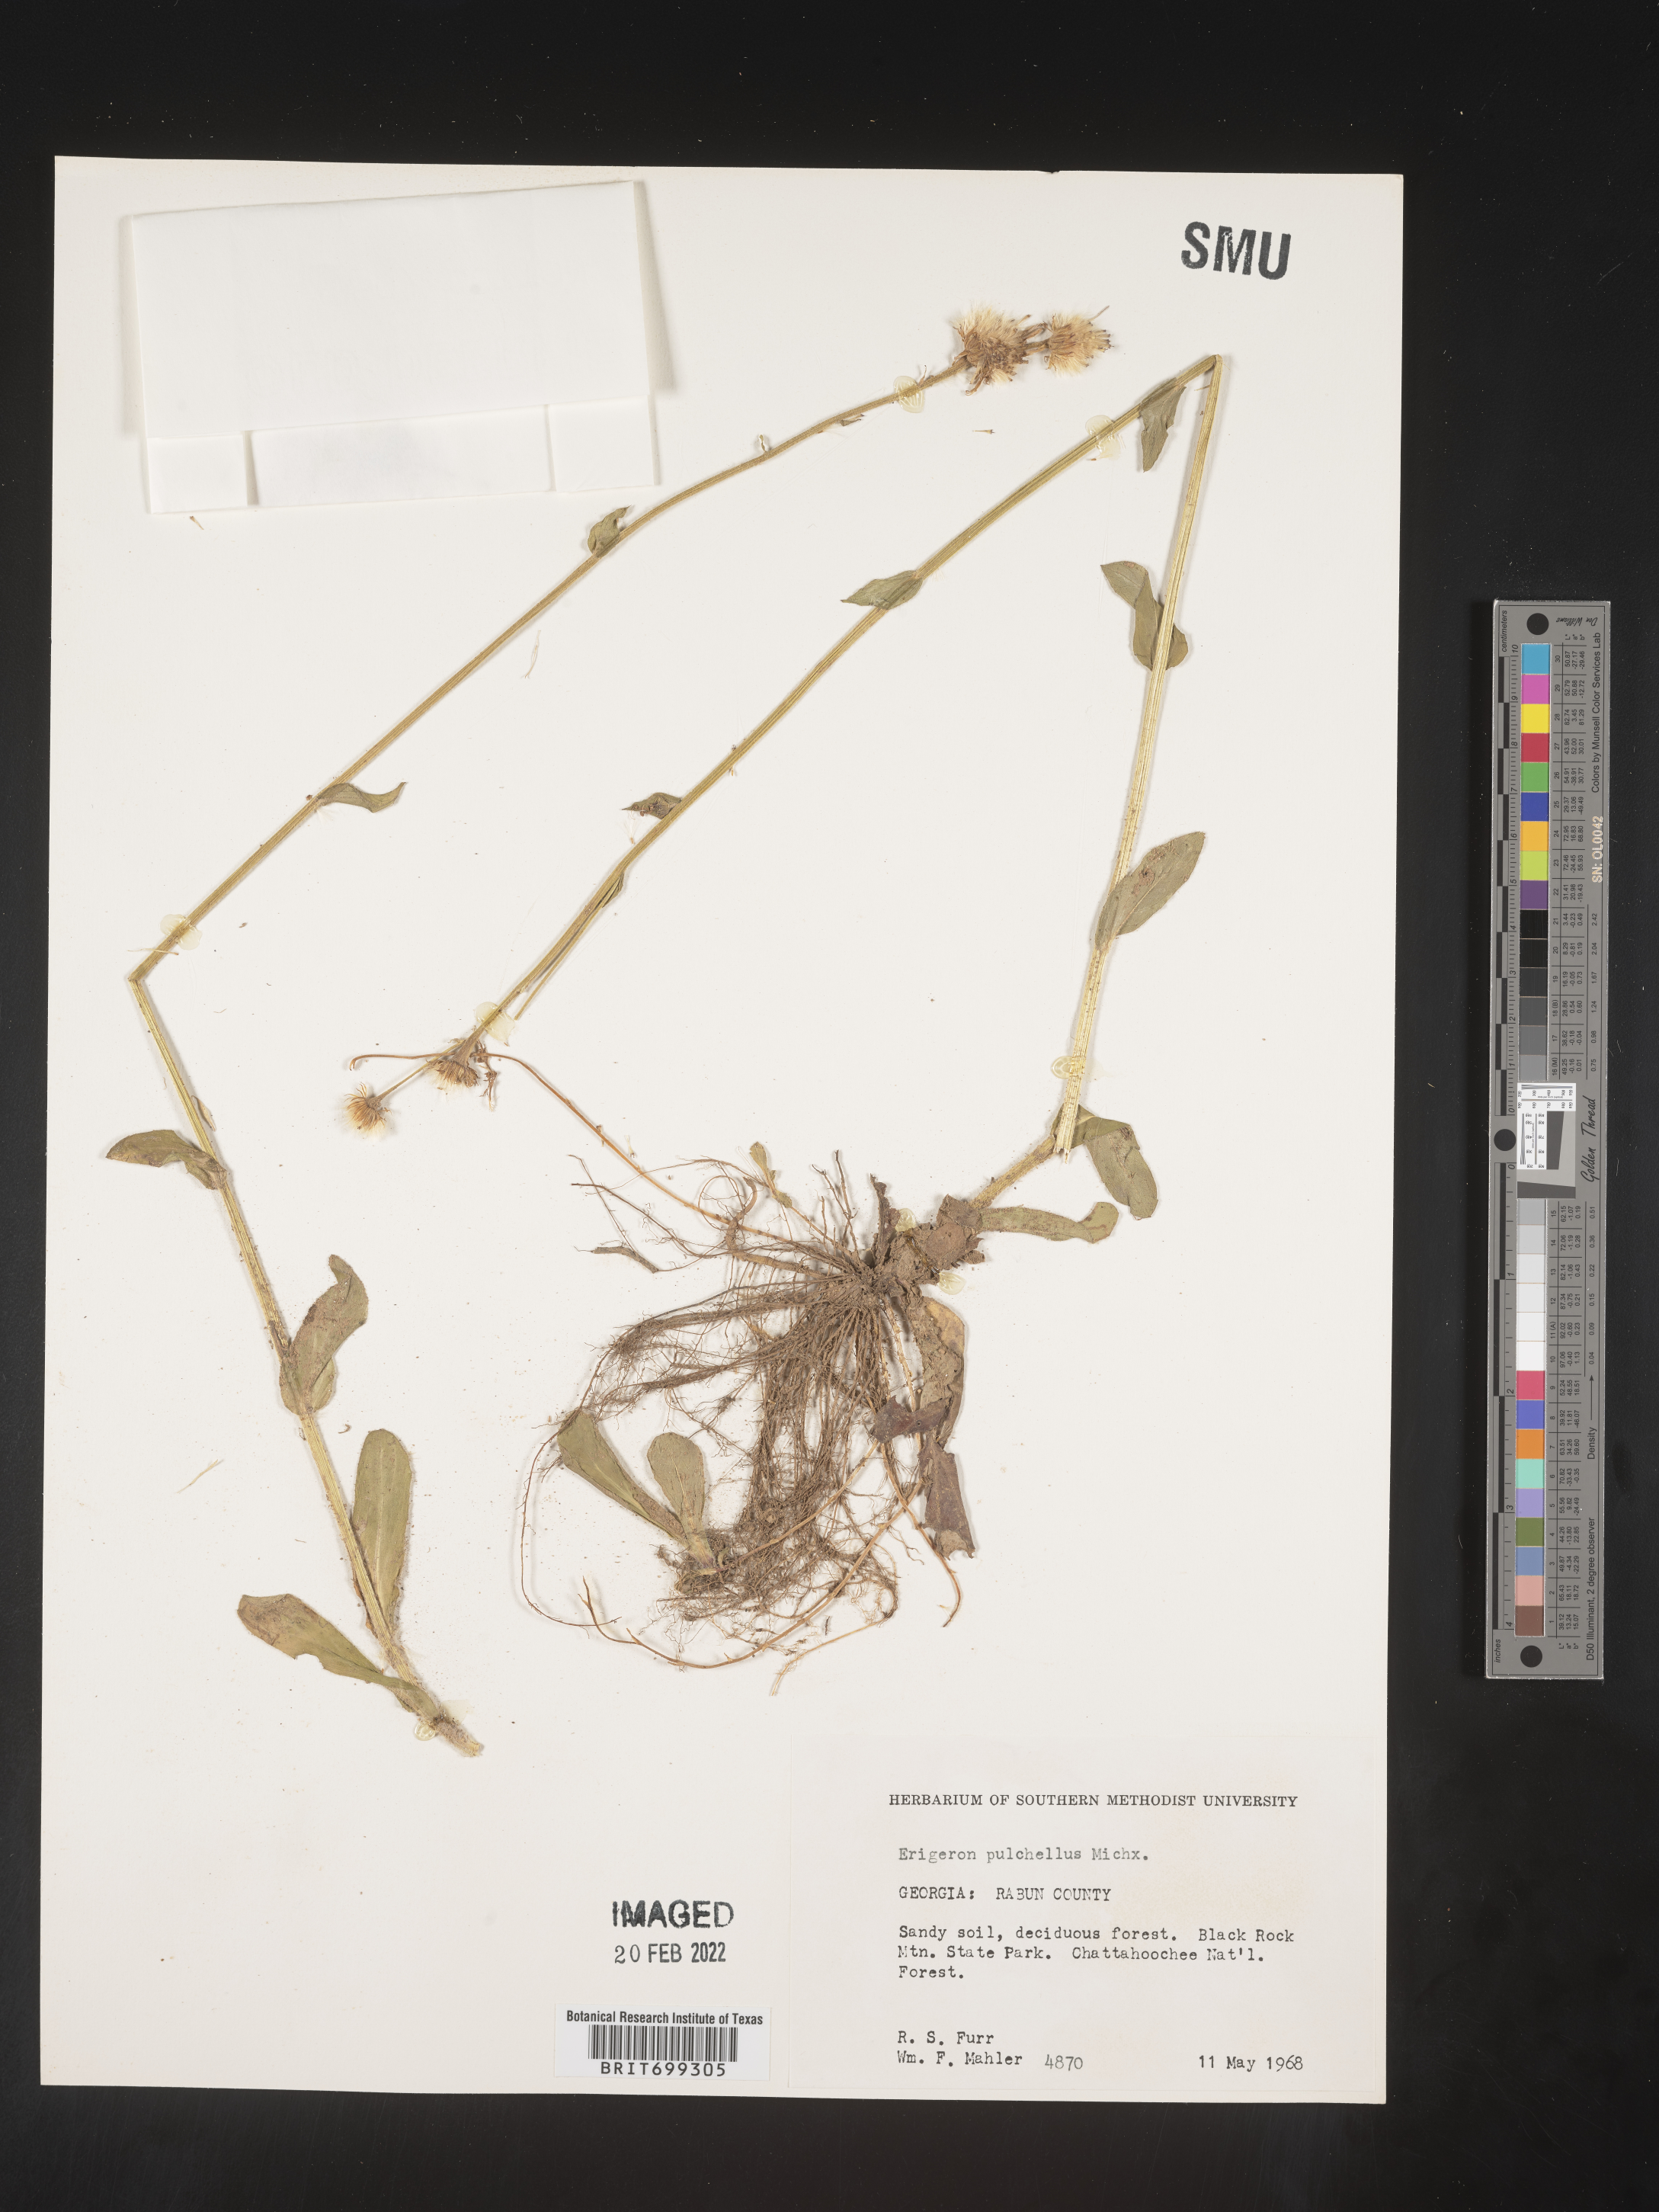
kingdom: Plantae
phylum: Tracheophyta
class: Magnoliopsida
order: Asterales
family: Asteraceae
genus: Erigeron
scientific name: Erigeron pulchellus
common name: Hairy fleabane
